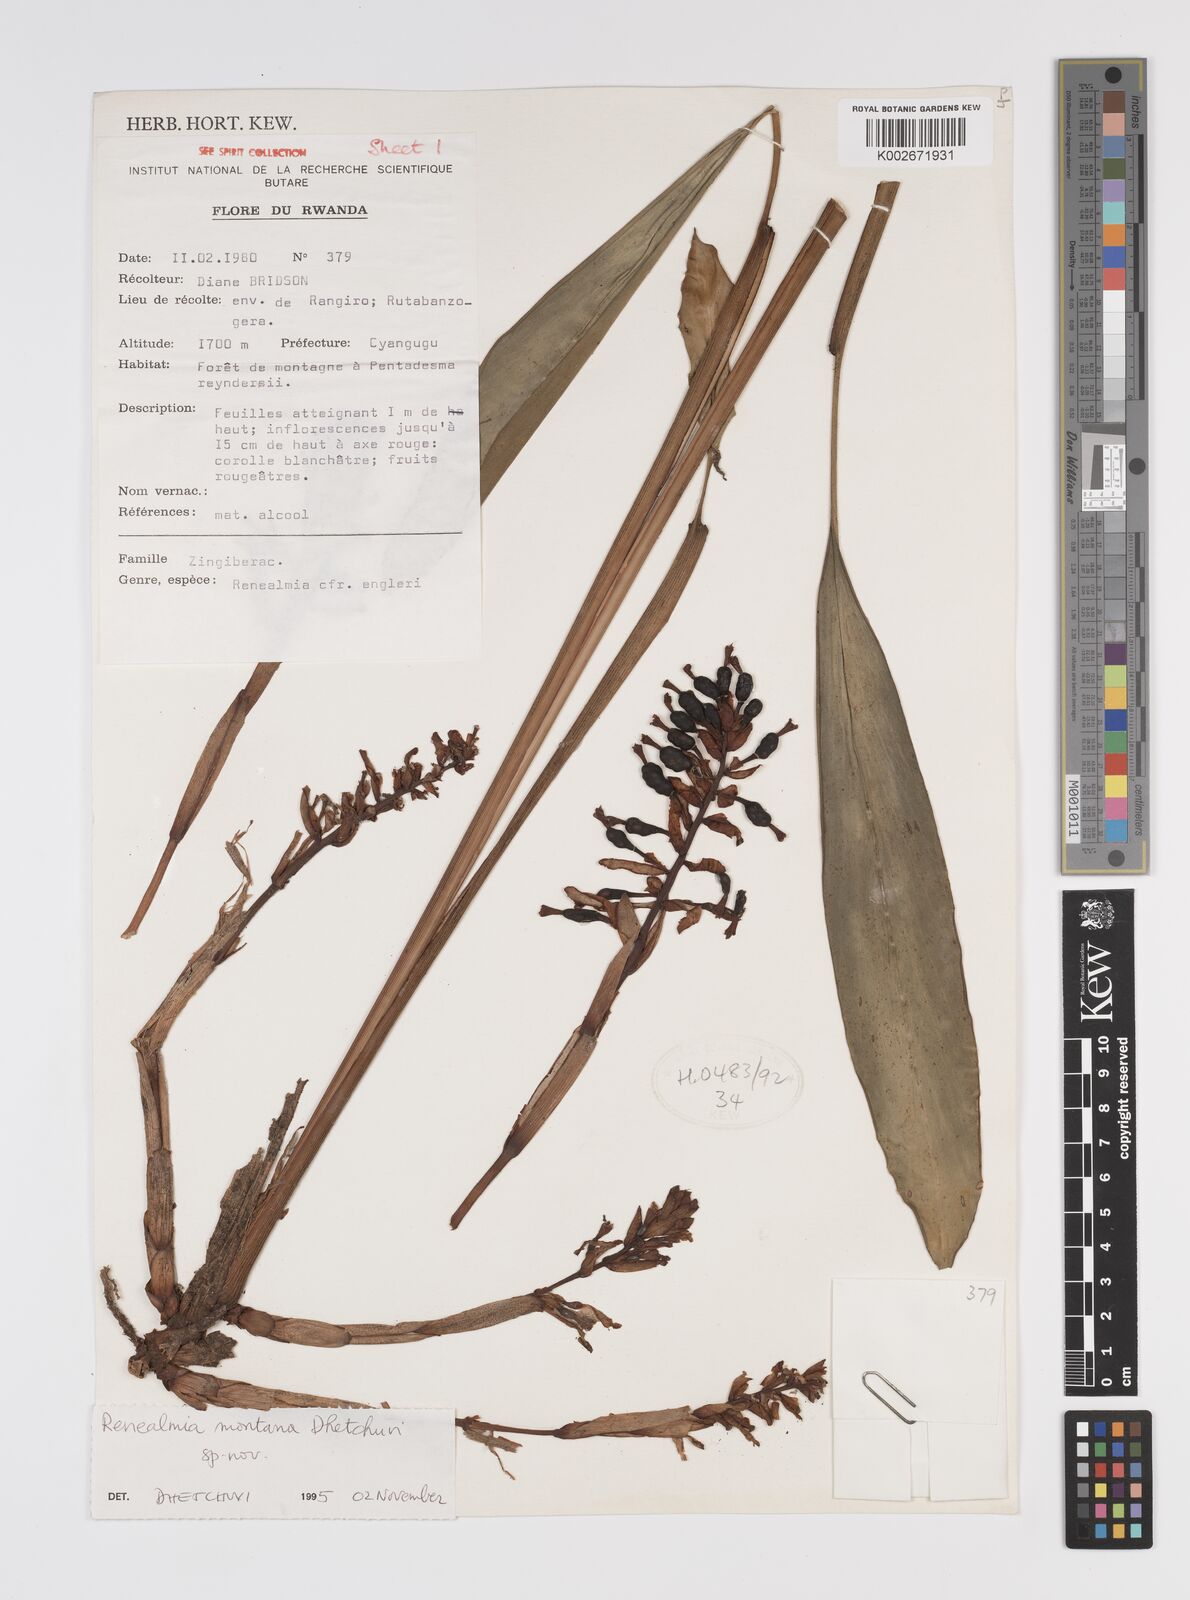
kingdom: Plantae
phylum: Tracheophyta
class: Liliopsida
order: Zingiberales
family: Zingiberaceae
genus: Renealmia
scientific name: Renealmia
